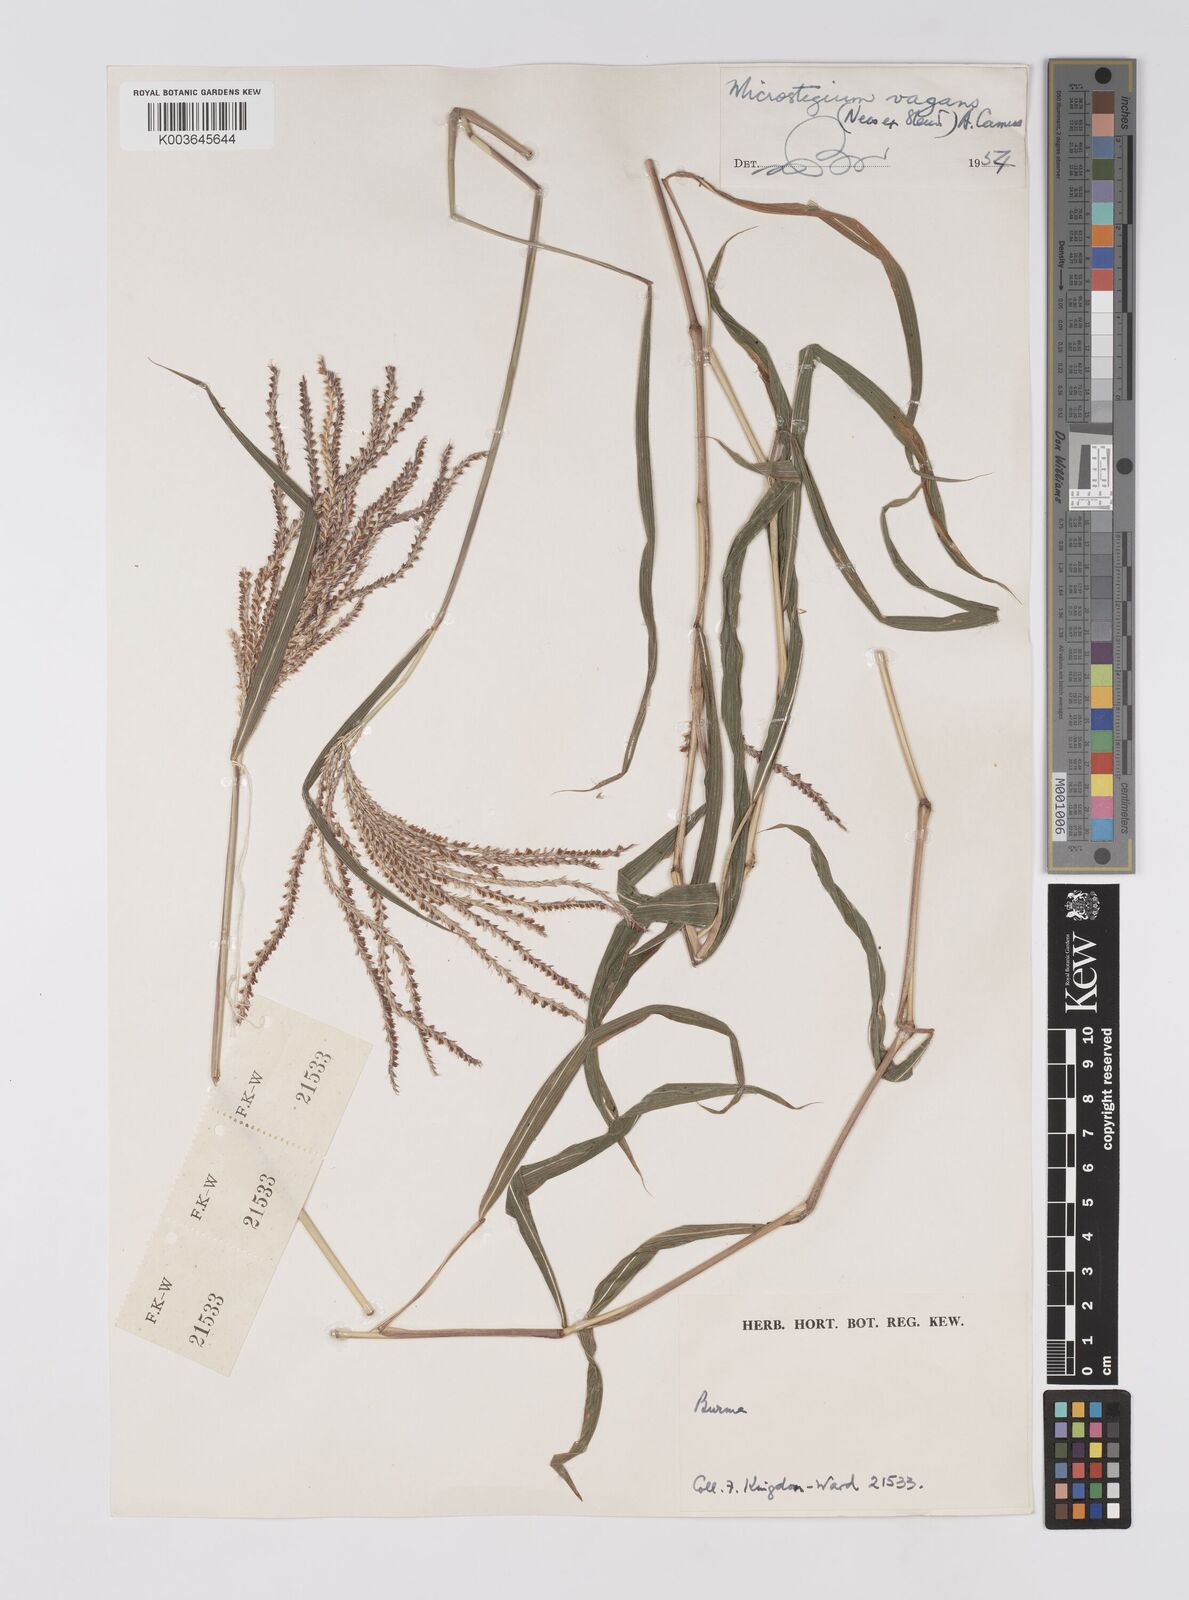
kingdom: Plantae
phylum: Tracheophyta
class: Liliopsida
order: Poales
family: Poaceae
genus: Microstegium
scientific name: Microstegium fasciculatum
